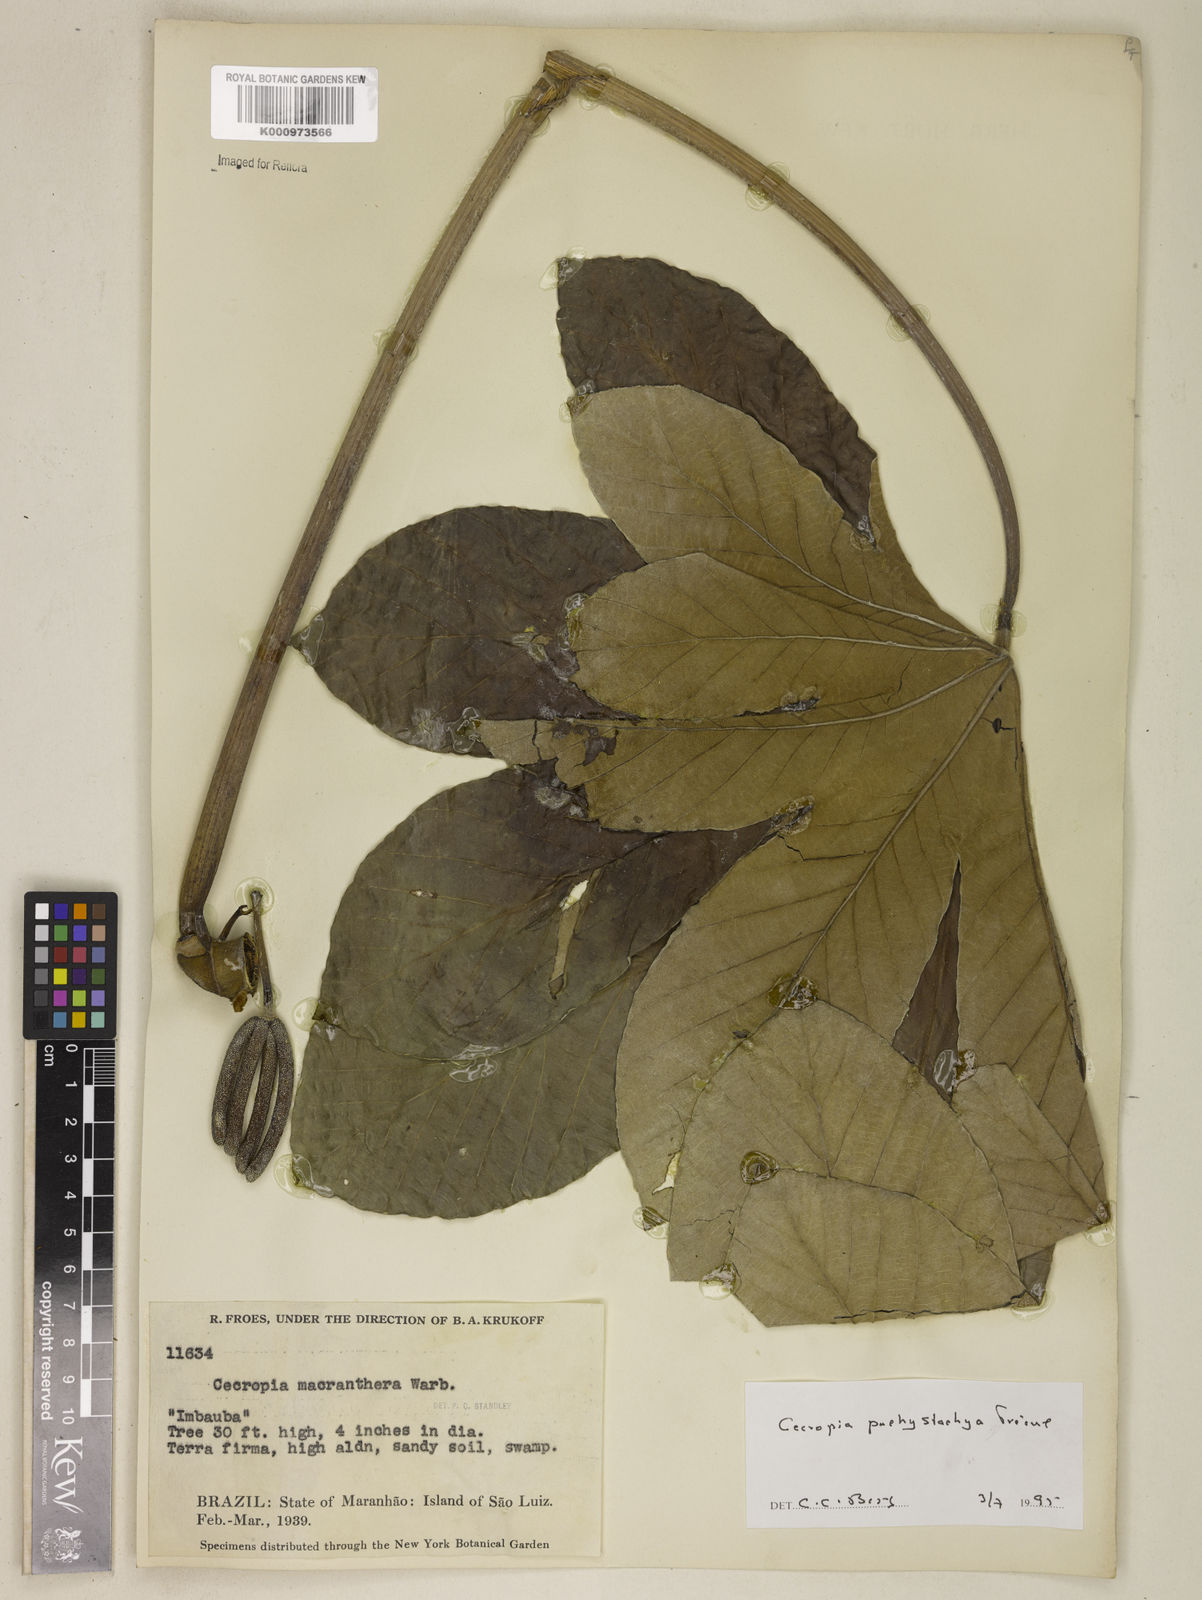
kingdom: Plantae
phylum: Tracheophyta
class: Magnoliopsida
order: Rosales
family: Urticaceae
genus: Cecropia
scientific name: Cecropia
